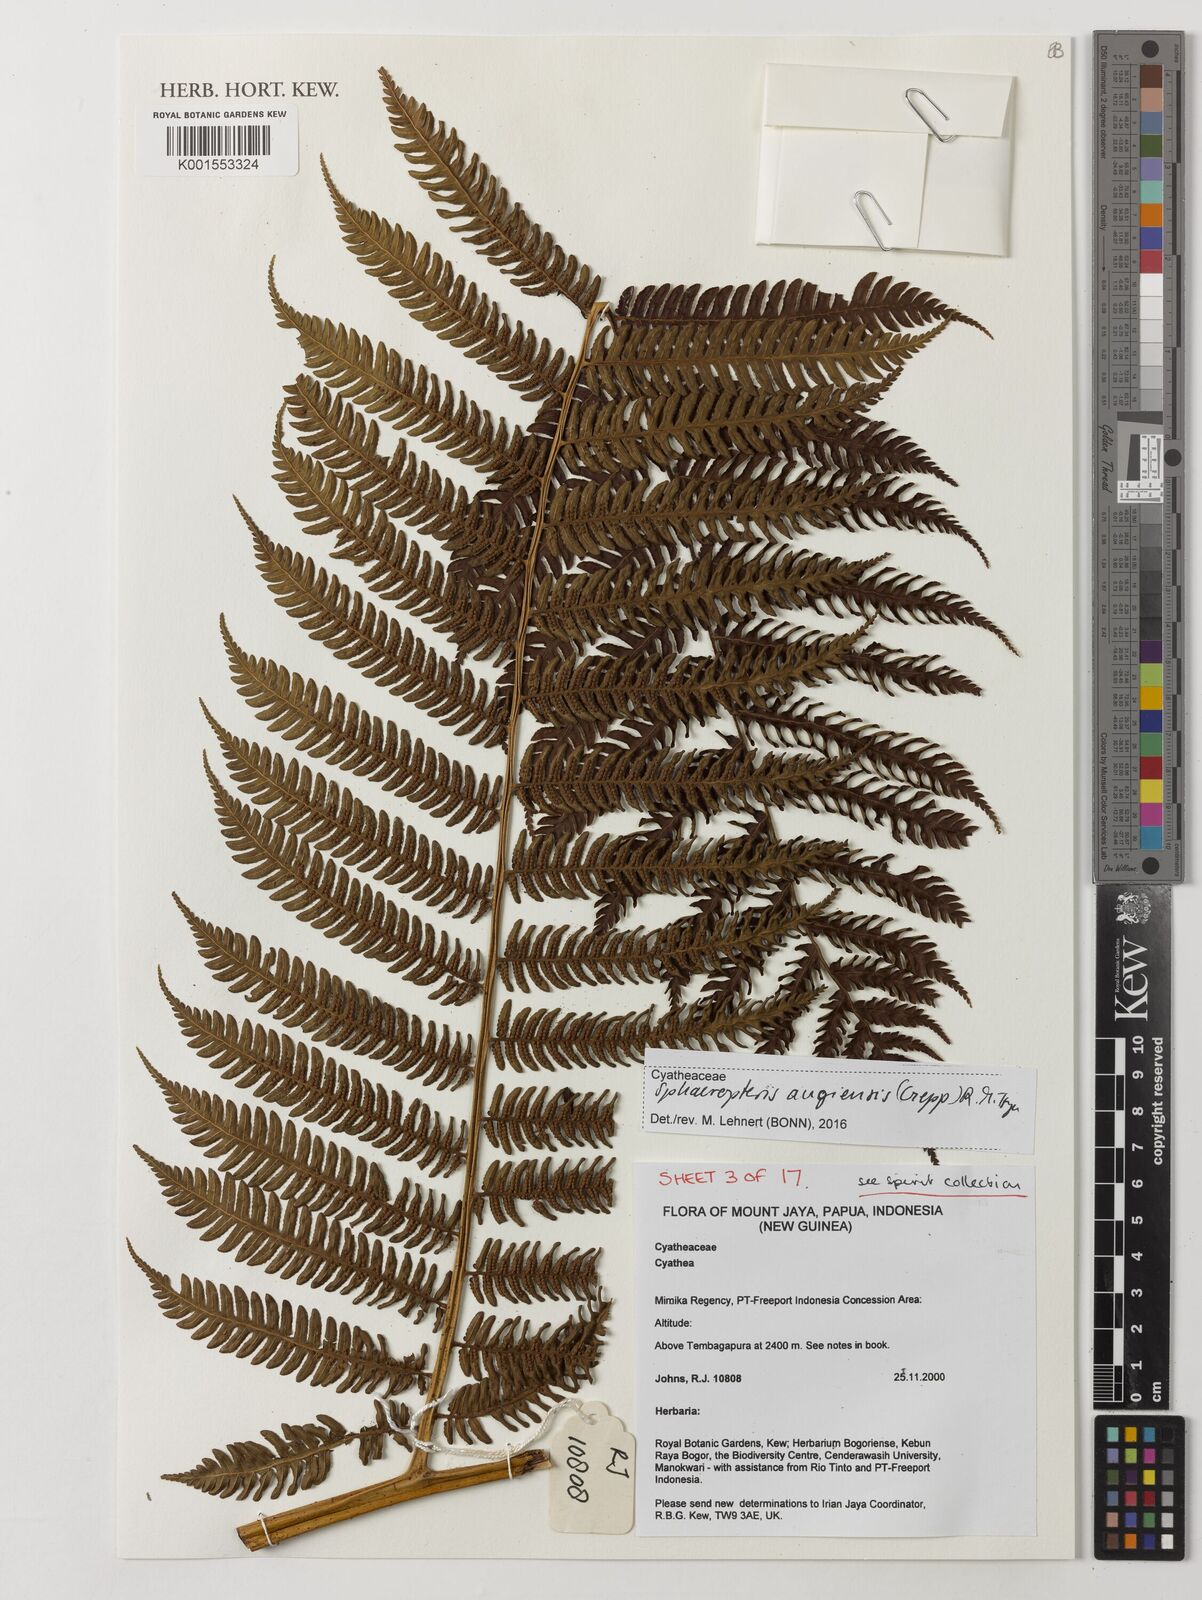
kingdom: Plantae
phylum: Tracheophyta
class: Polypodiopsida
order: Cyatheales
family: Cyatheaceae
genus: Sphaeropteris
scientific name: Sphaeropteris
